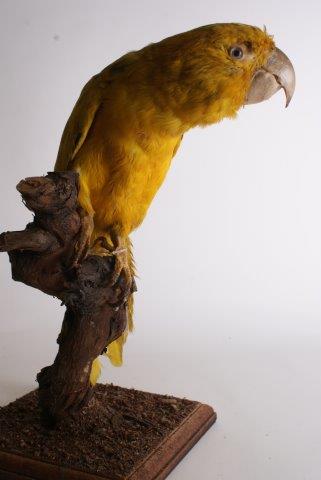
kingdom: Animalia
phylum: Chordata
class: Aves
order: Psittaciformes
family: Psittacidae
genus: Guaruba
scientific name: Guaruba guarouba
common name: Golden parakeet
